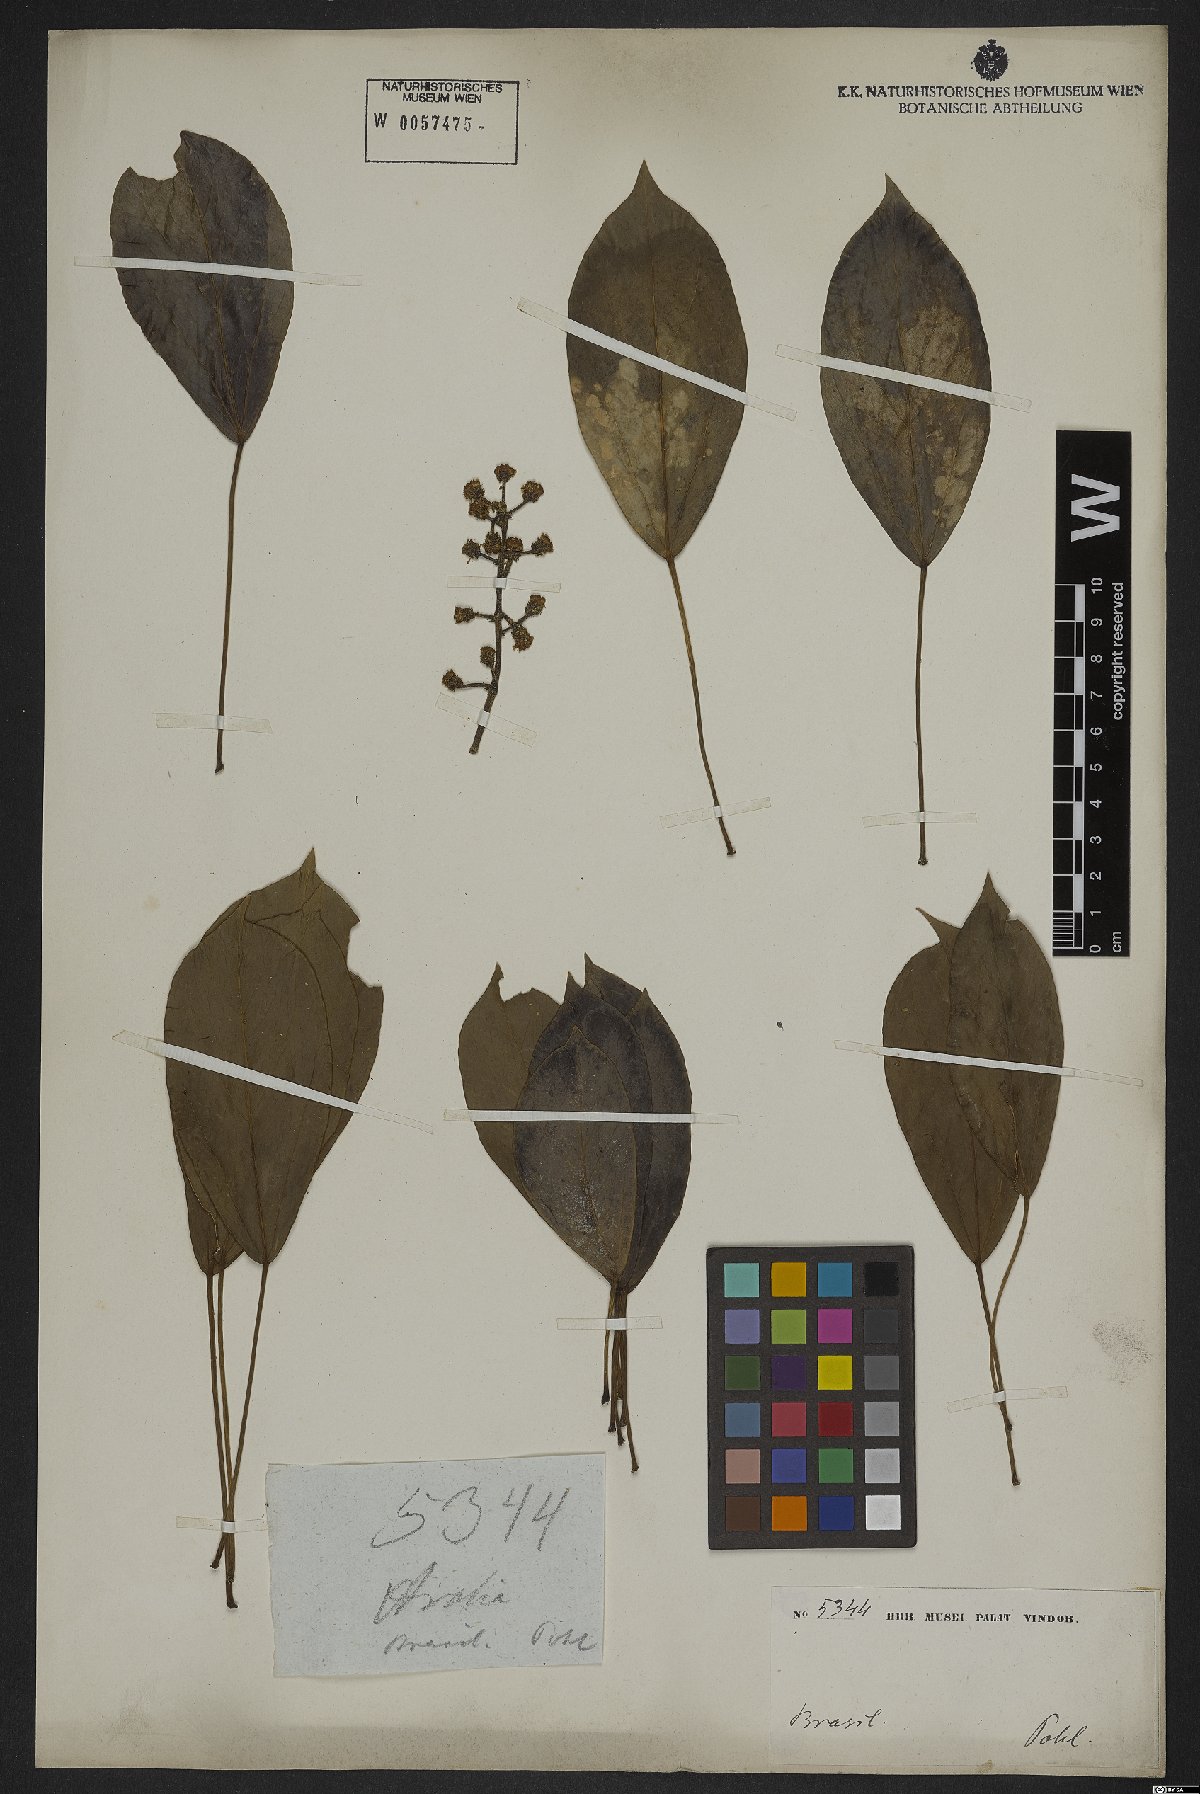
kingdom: Plantae
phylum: Tracheophyta
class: Magnoliopsida
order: Apiales
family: Araliaceae
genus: Oreopanax
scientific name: Oreopanax capitatus
